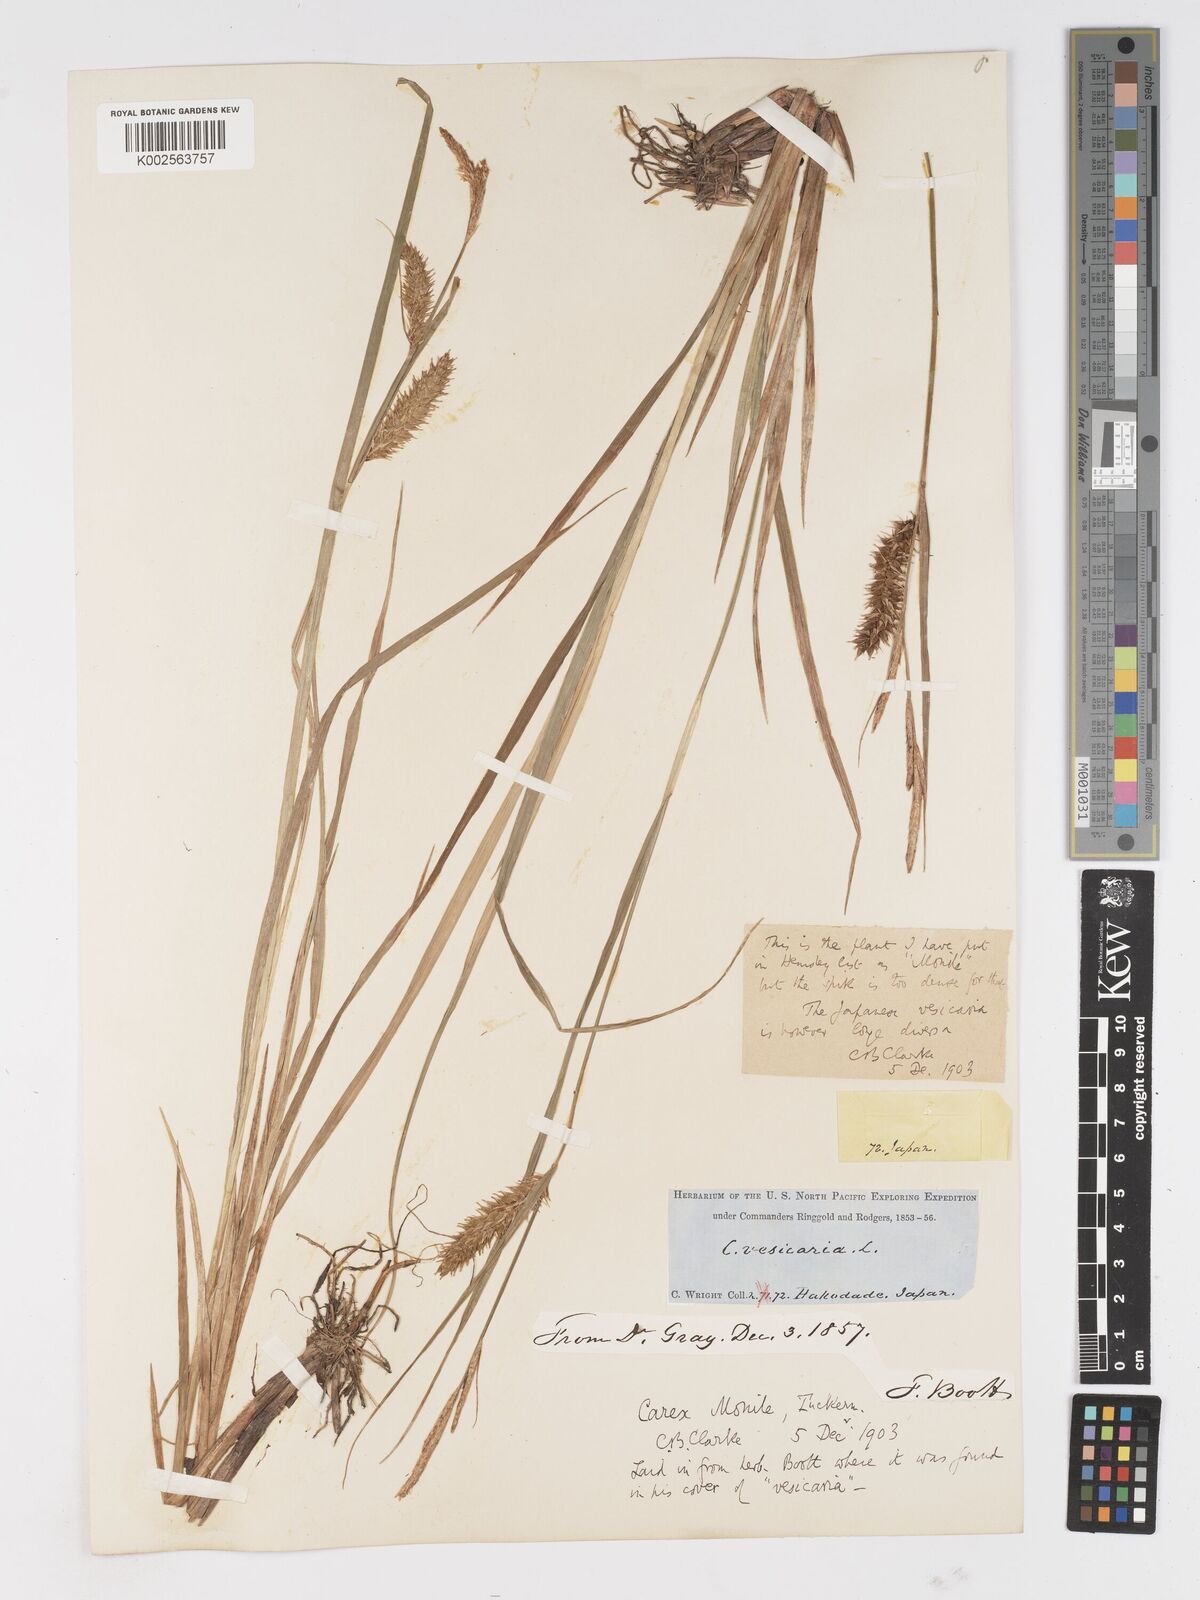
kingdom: Plantae
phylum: Tracheophyta
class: Liliopsida
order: Poales
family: Cyperaceae
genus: Carex
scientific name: Carex vesicaria
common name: Bladder-sedge
